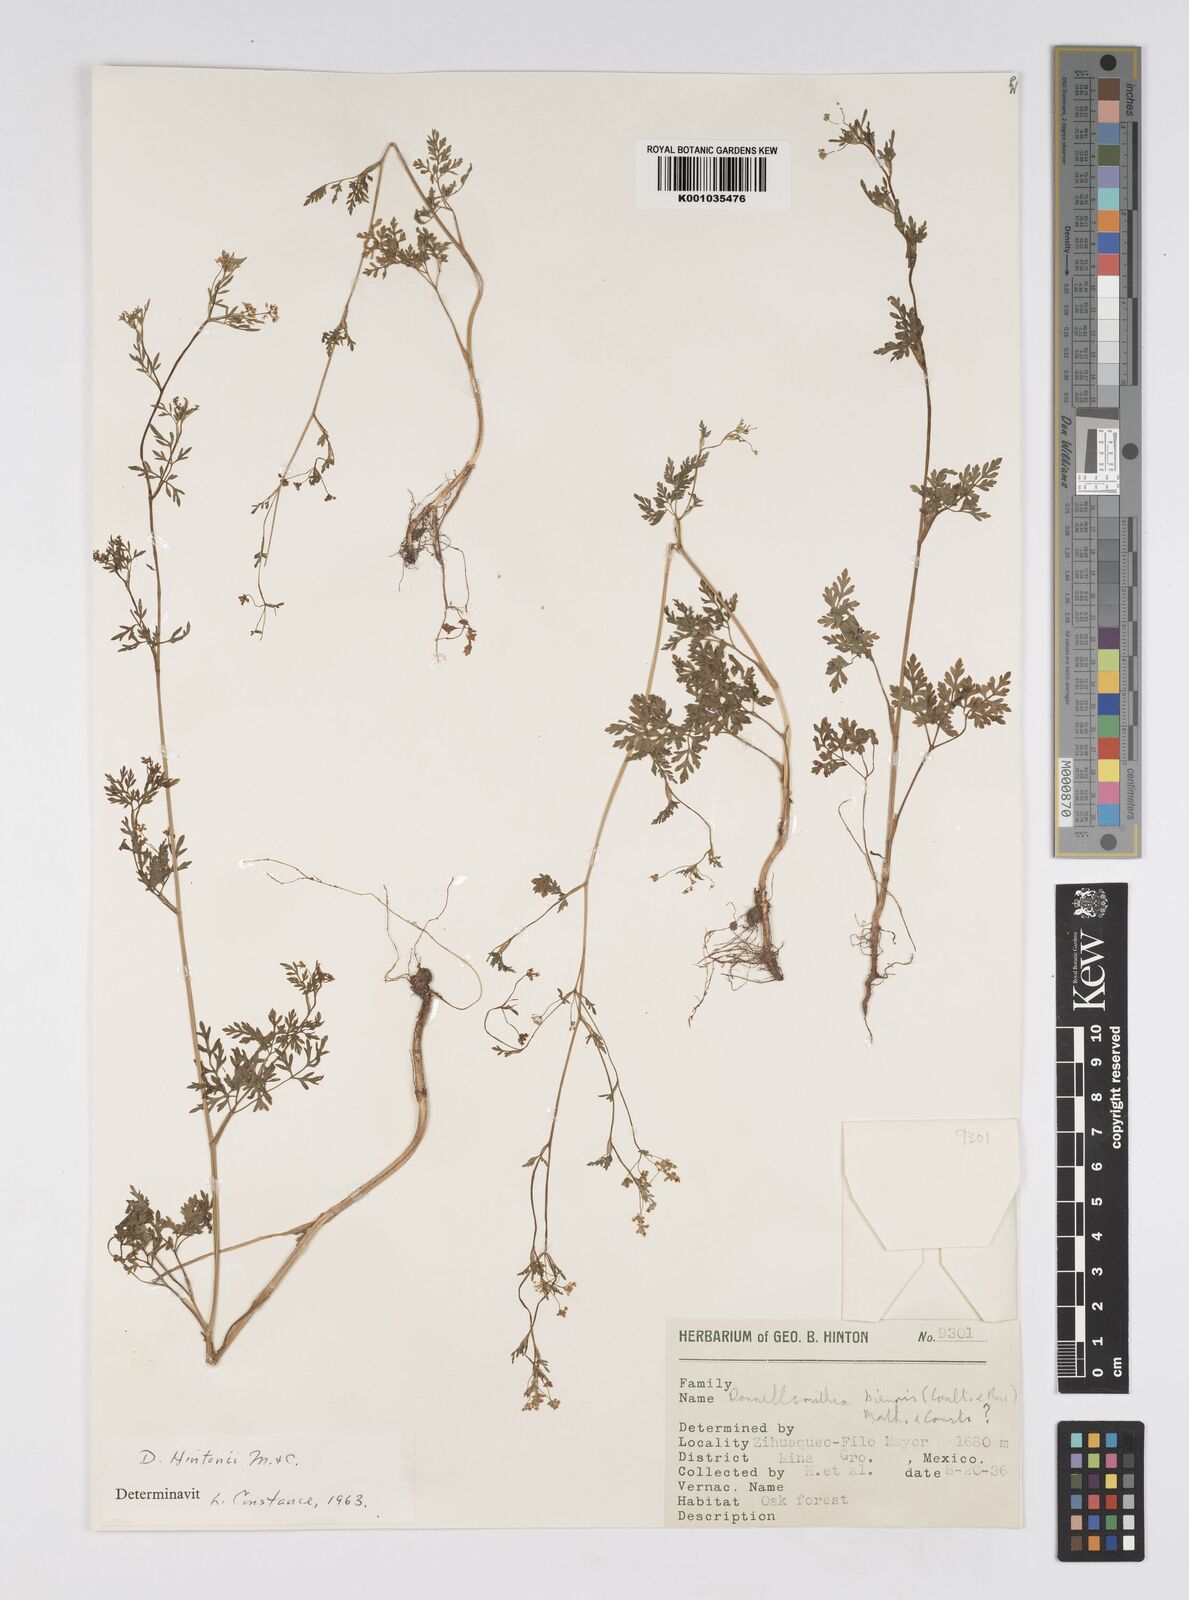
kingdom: Plantae
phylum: Tracheophyta
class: Magnoliopsida
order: Apiales
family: Apiaceae
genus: Donnellsmithia
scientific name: Donnellsmithia hintonii
